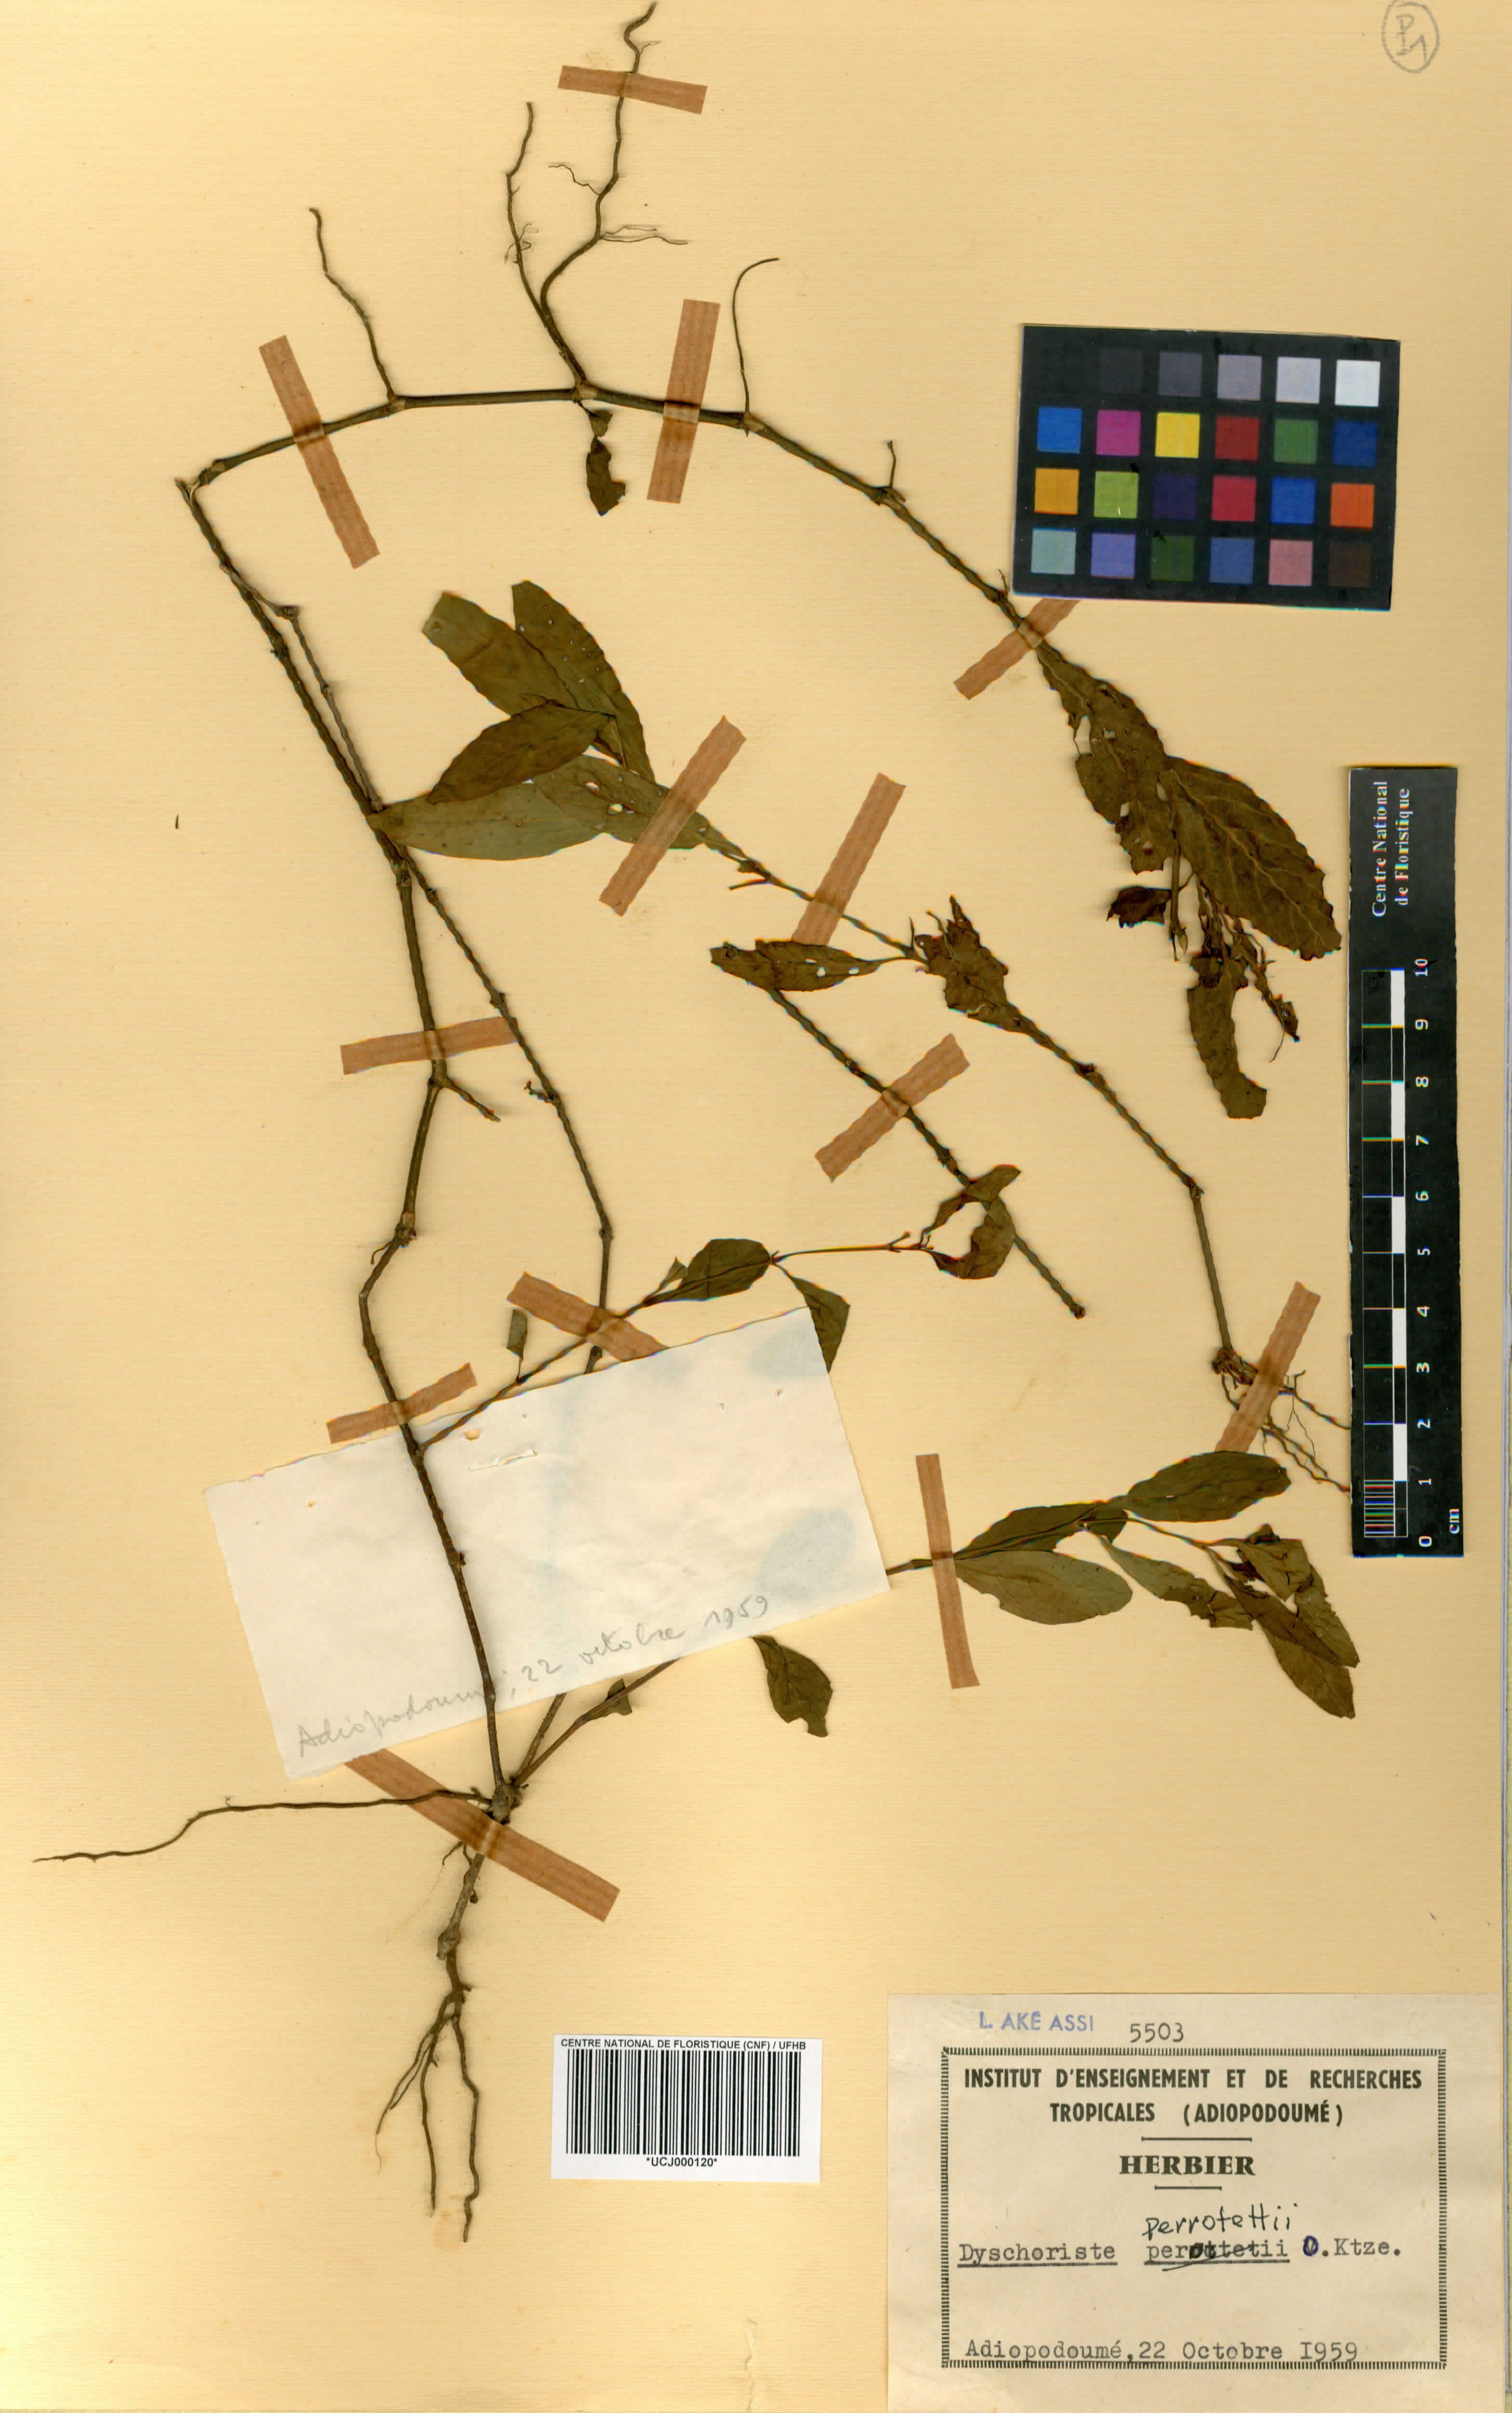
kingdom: Plantae
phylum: Tracheophyta
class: Magnoliopsida
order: Lamiales
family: Acanthaceae
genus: Dyschoriste
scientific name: Dyschoriste nagchana
